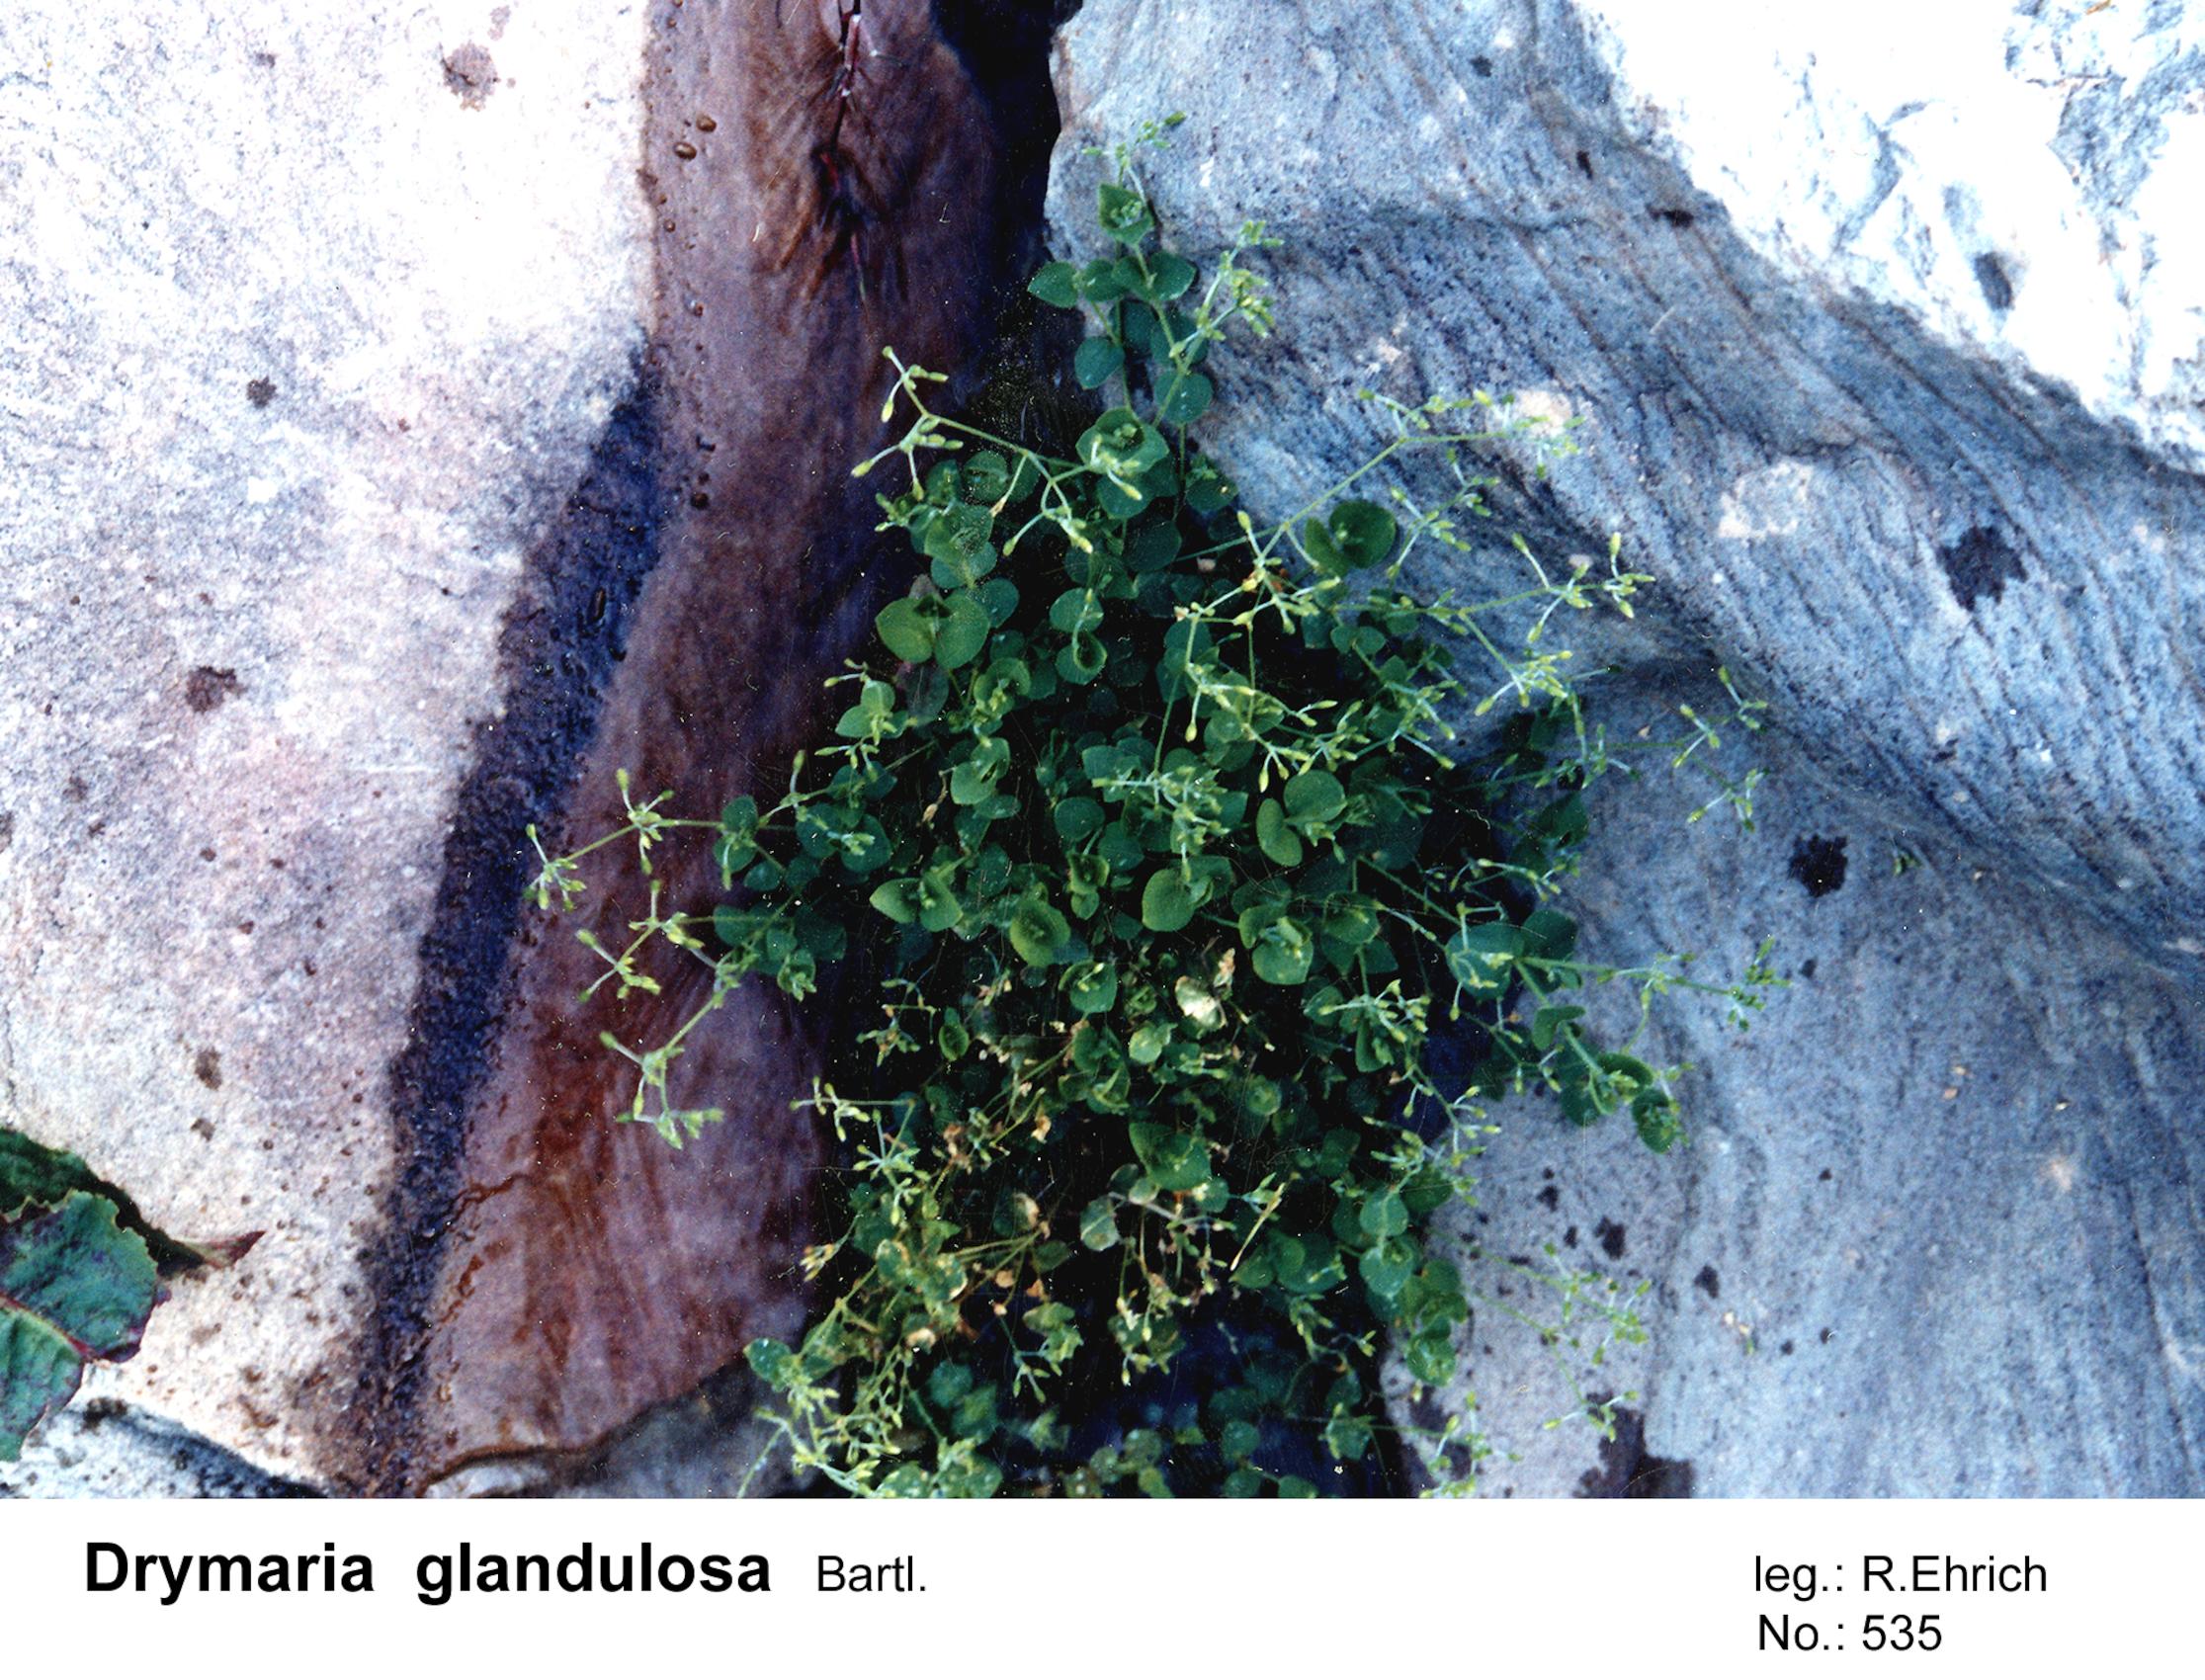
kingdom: Plantae
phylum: Tracheophyta
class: Magnoliopsida
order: Caryophyllales
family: Caryophyllaceae
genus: Drymaria
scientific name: Drymaria glandulosa
